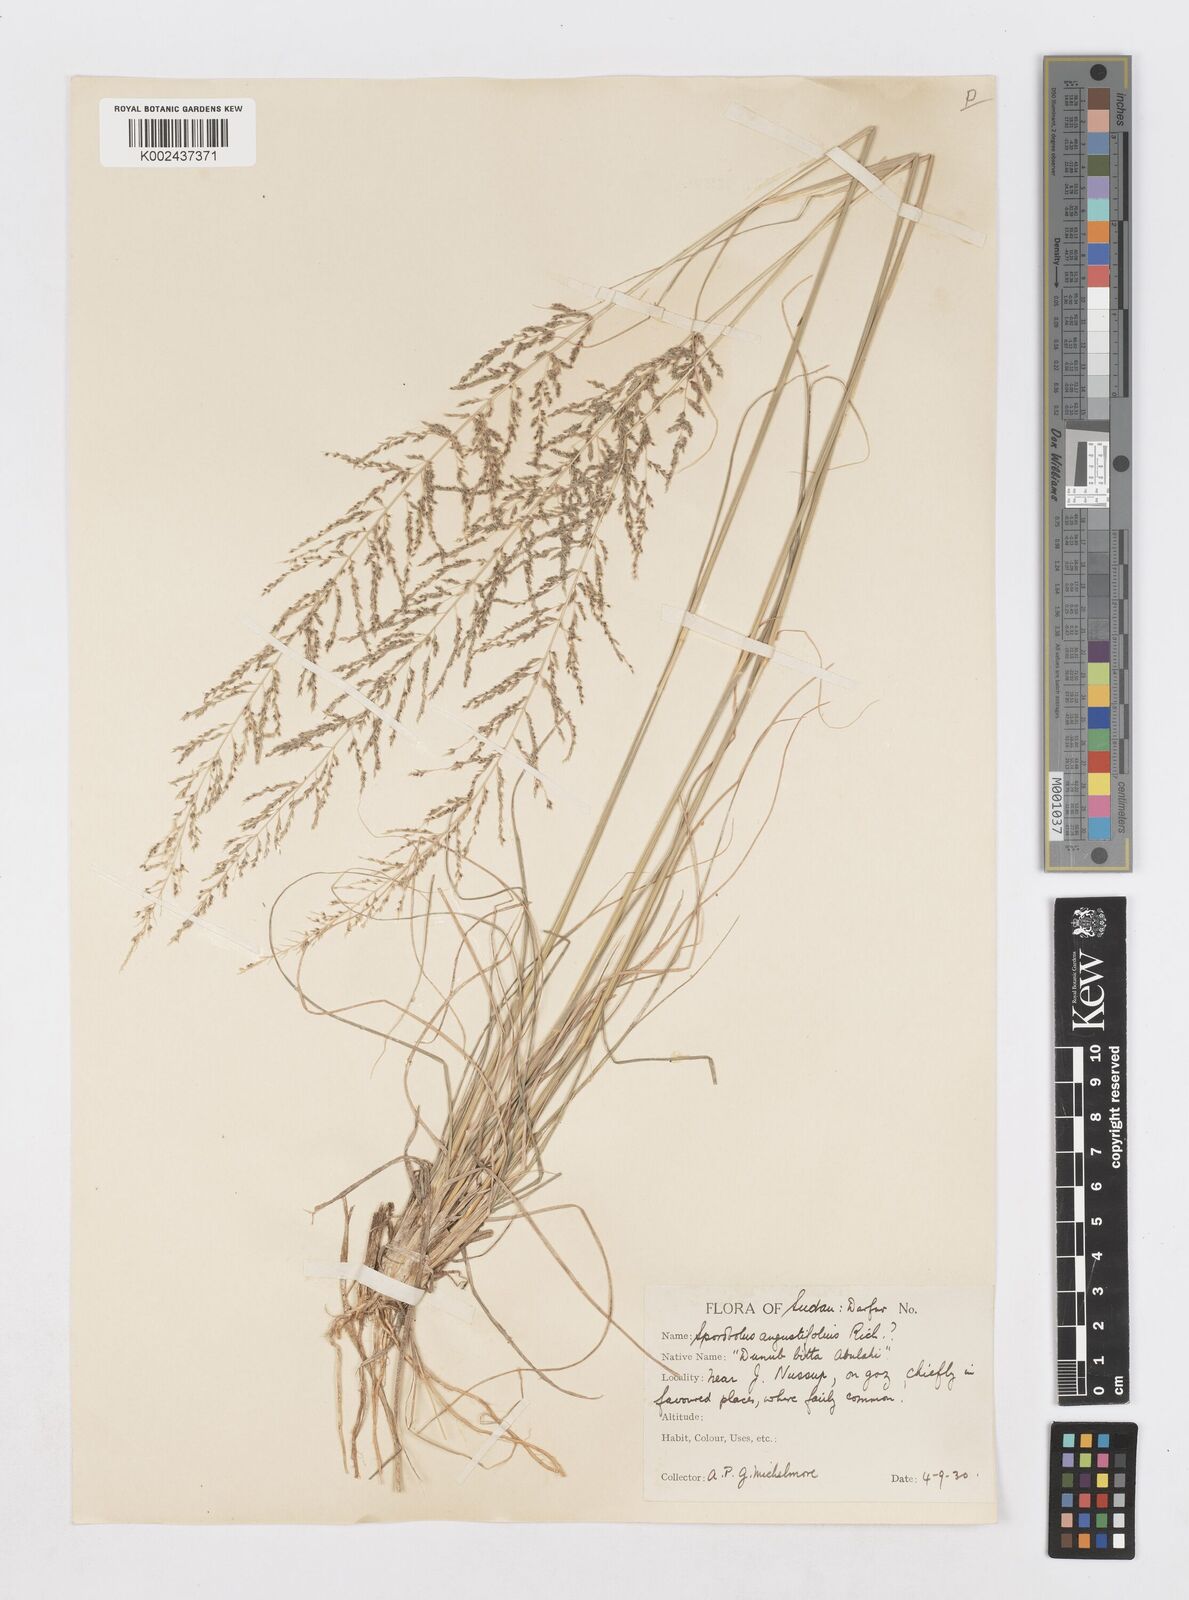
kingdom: Plantae
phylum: Tracheophyta
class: Liliopsida
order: Poales
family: Poaceae
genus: Sporobolus
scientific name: Sporobolus pellucidus
